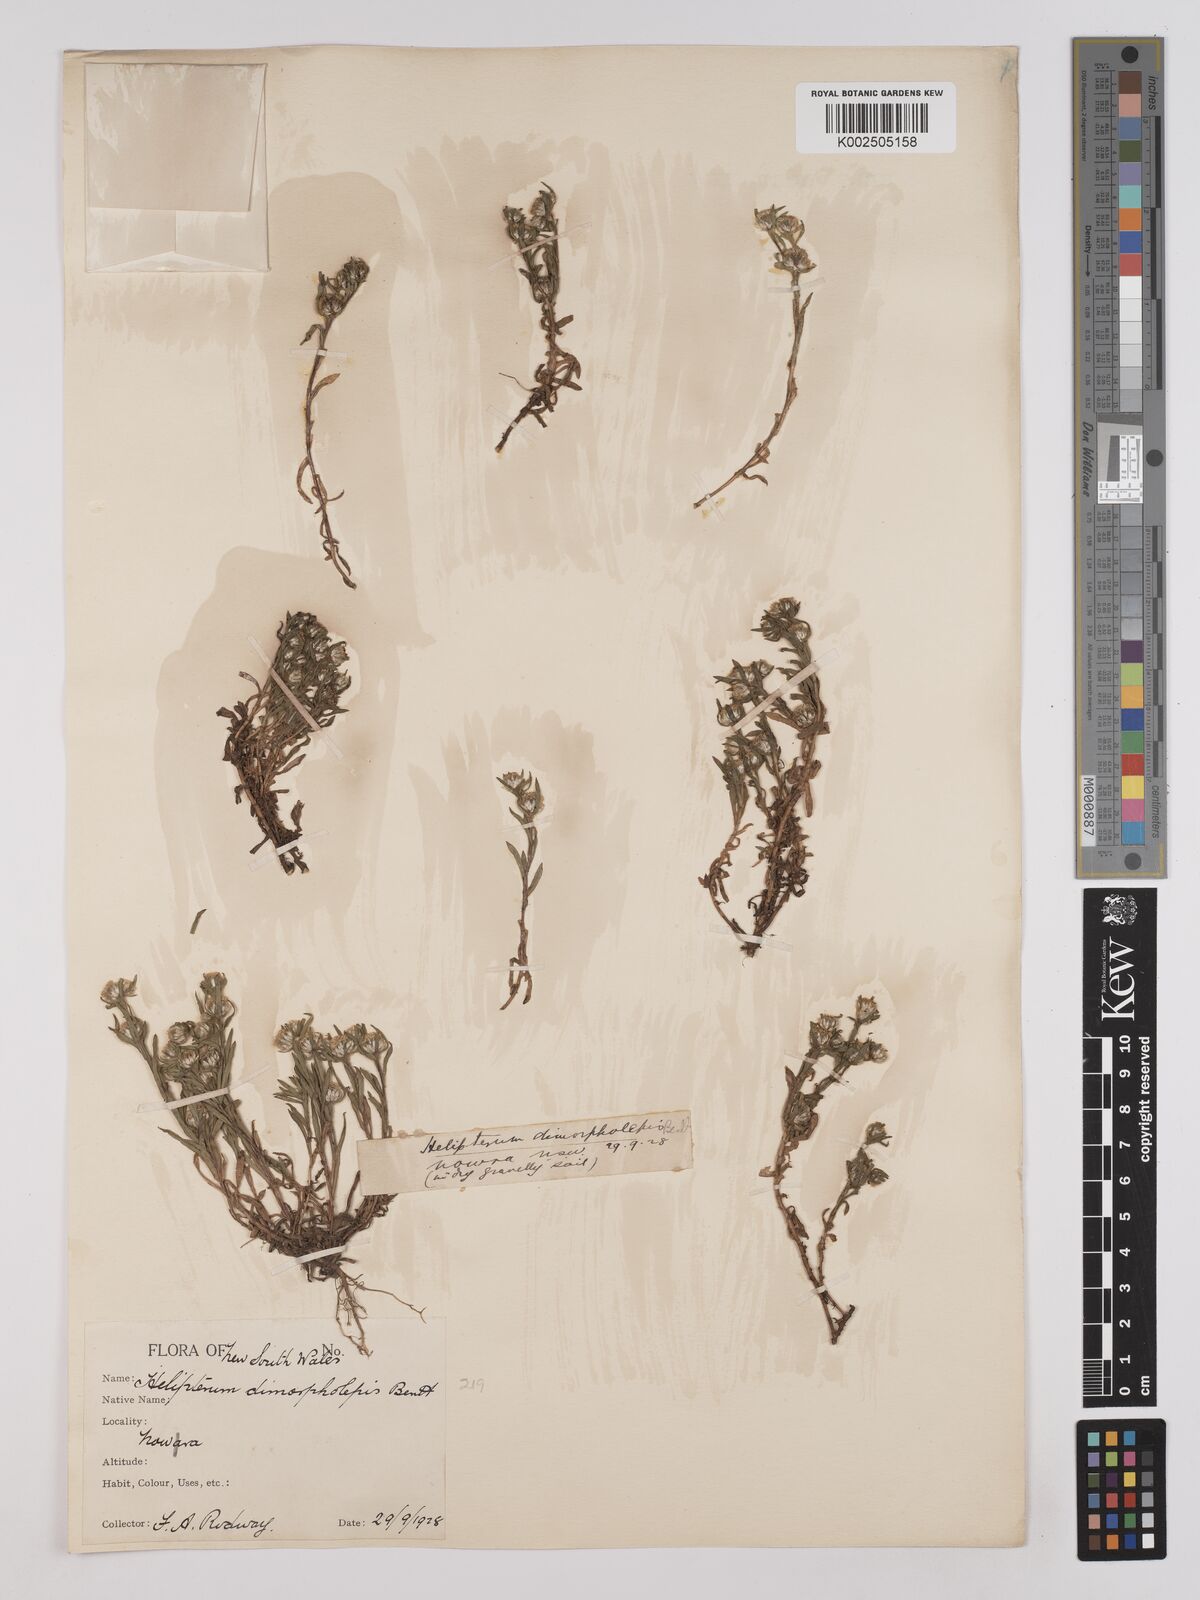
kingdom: Plantae
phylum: Tracheophyta
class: Magnoliopsida
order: Asterales
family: Asteraceae
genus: Triptilodiscus
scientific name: Triptilodiscus pygmaeus
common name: Common sunray
